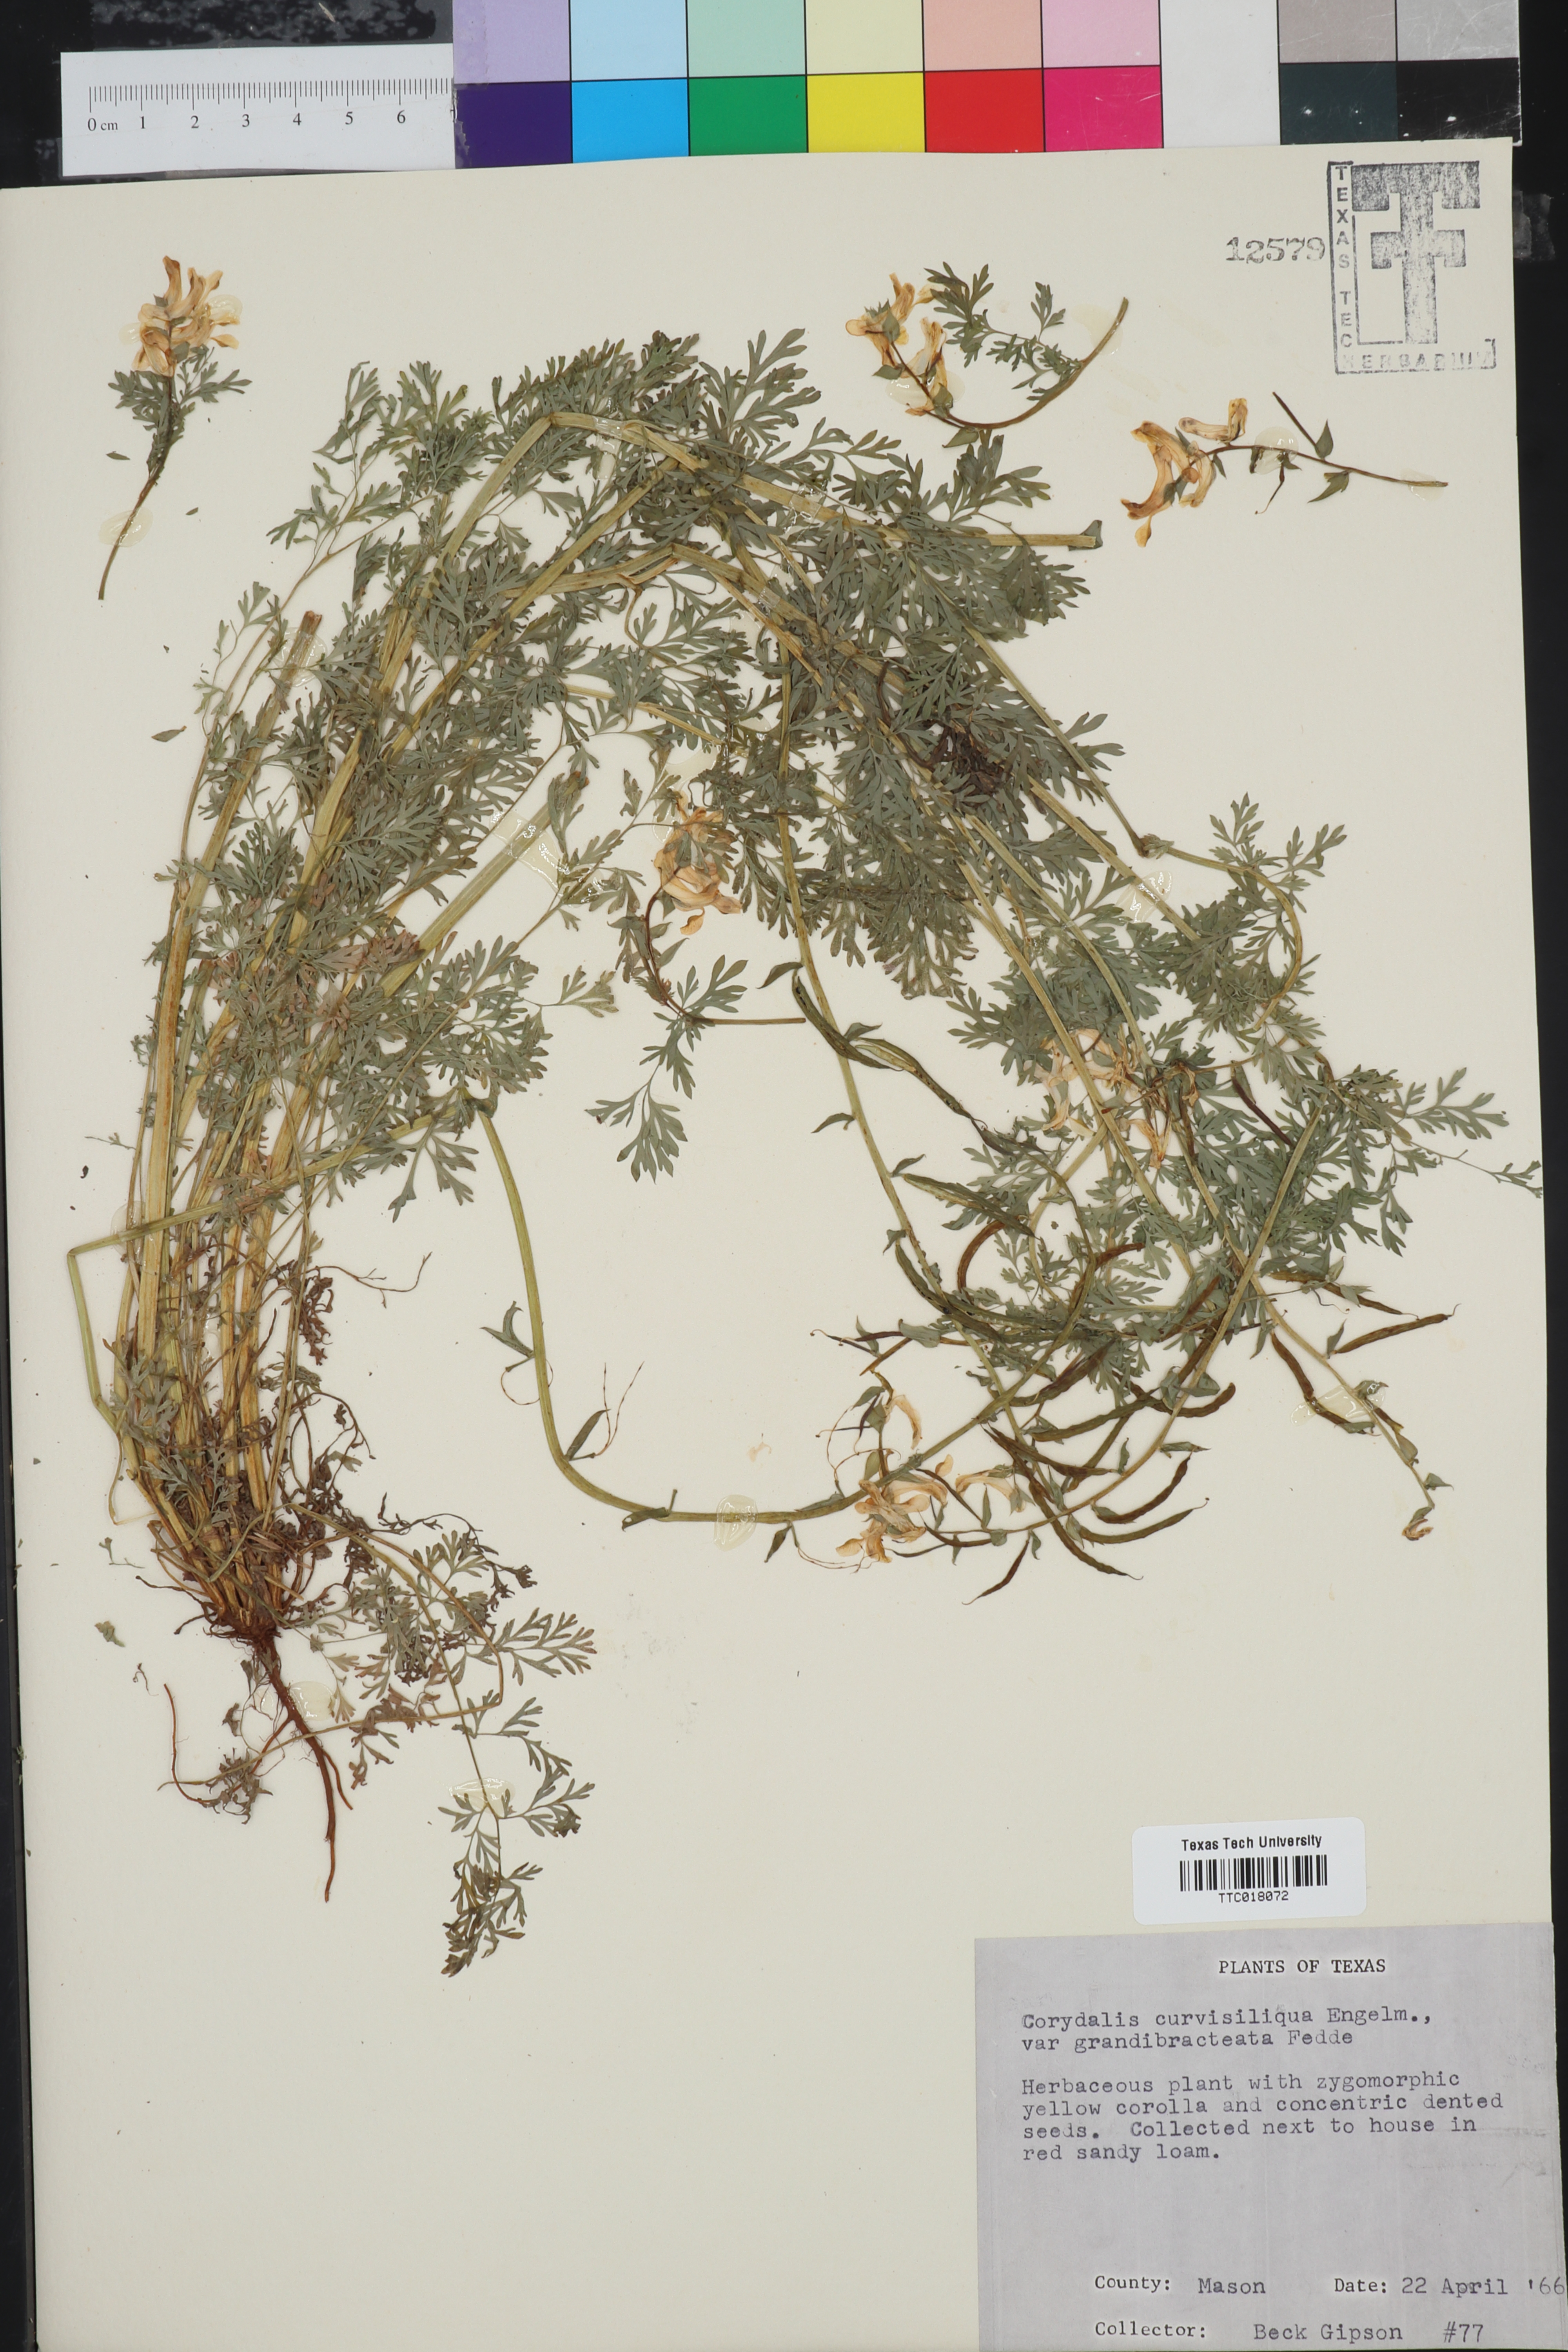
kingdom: Plantae
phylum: Tracheophyta
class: Magnoliopsida
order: Ranunculales
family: Papaveraceae
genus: Corydalis
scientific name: Corydalis curvisiliqua
